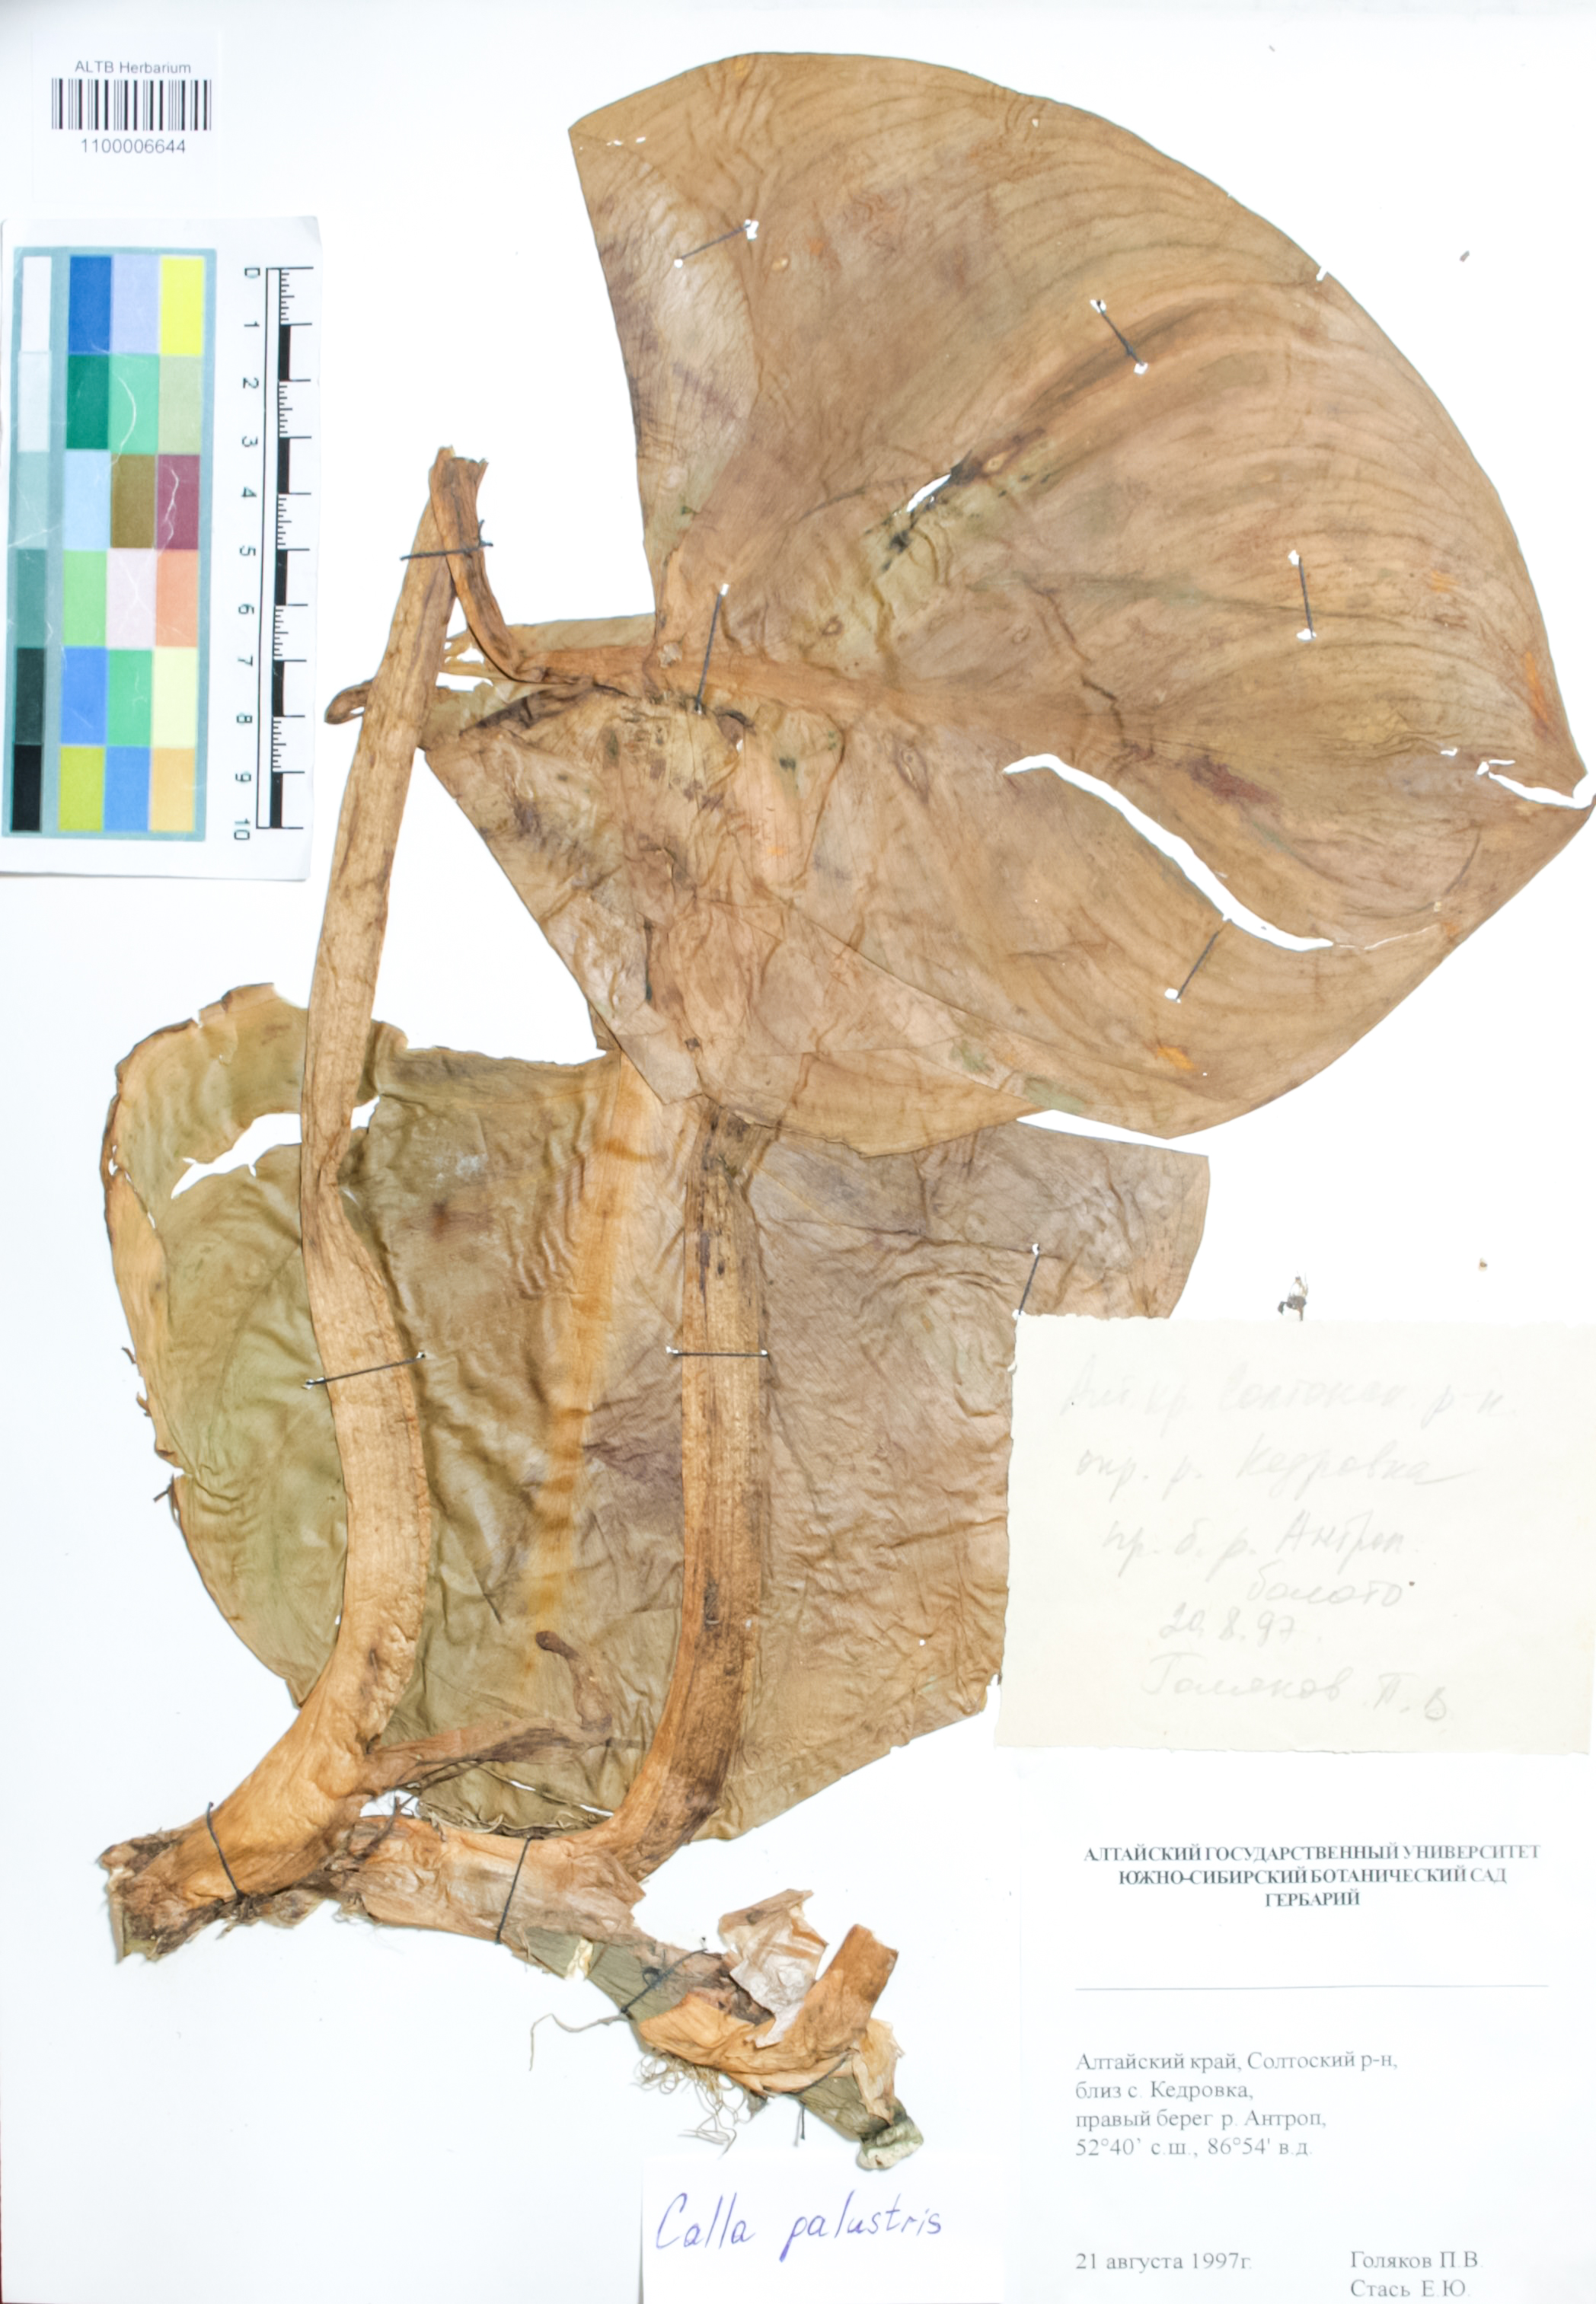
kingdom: Plantae
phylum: Tracheophyta
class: Liliopsida
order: Alismatales
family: Araceae
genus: Calla
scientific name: Calla palustris
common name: Bog arum
